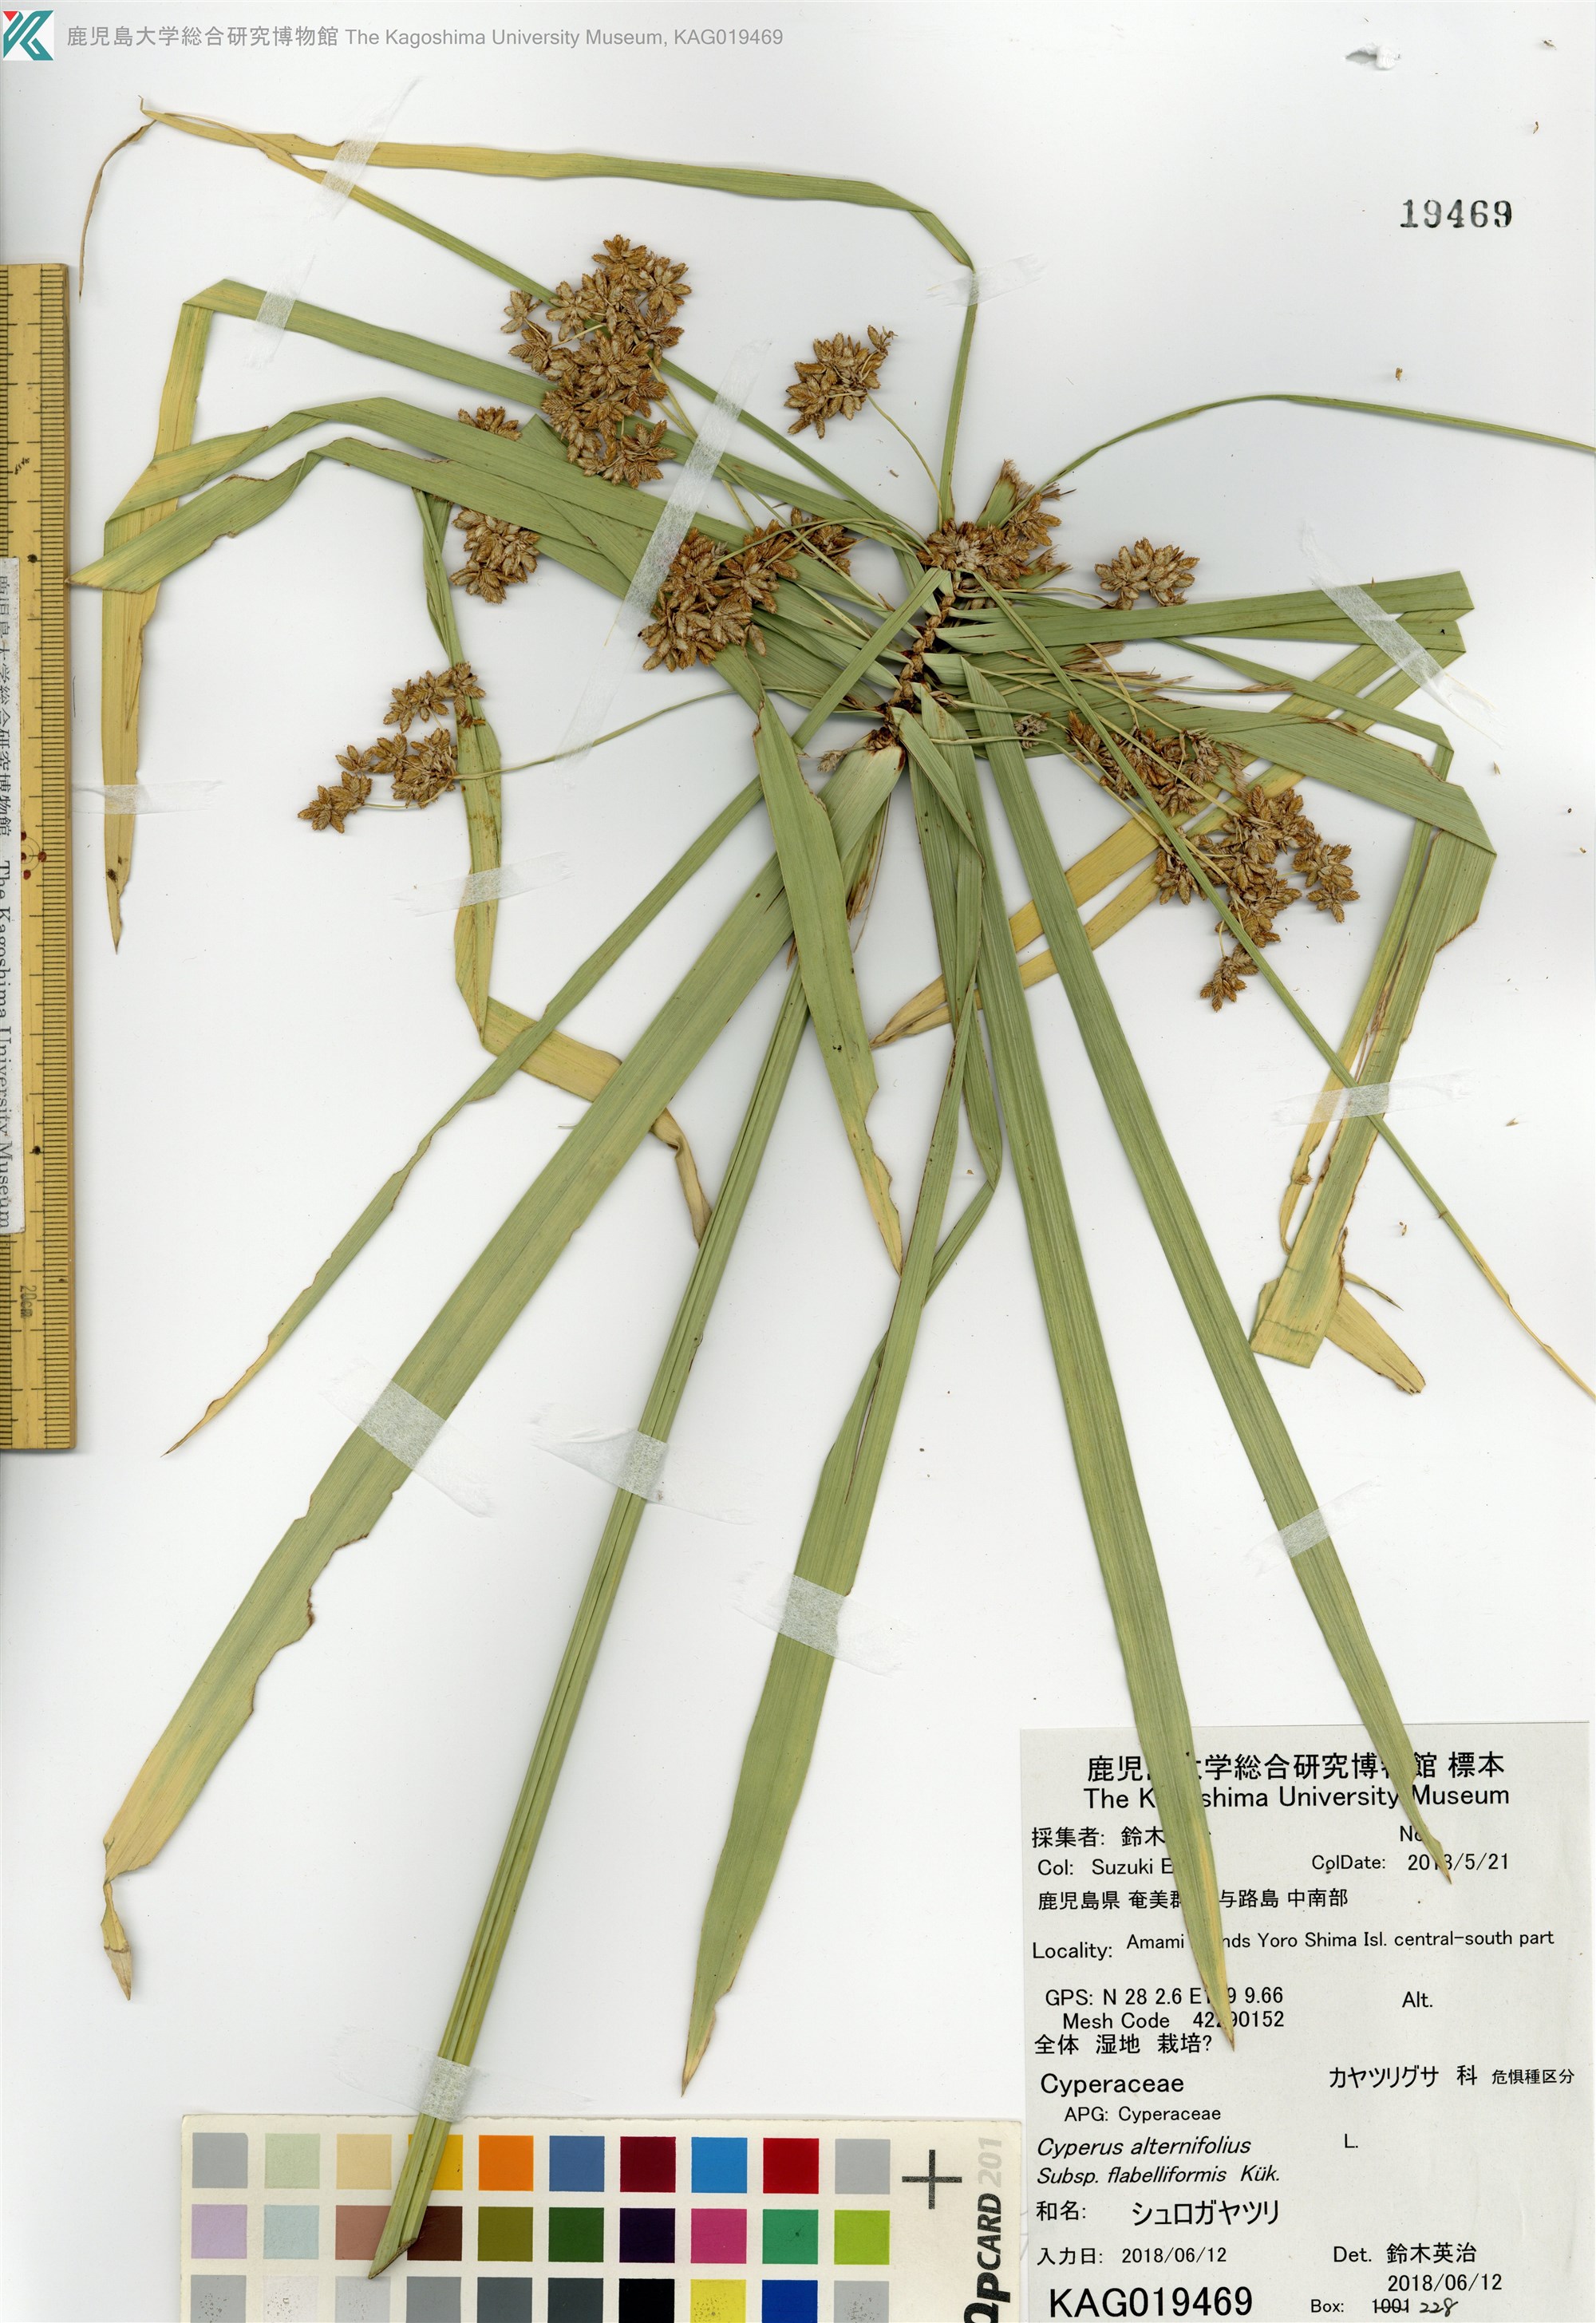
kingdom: Plantae
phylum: Tracheophyta
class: Liliopsida
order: Poales
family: Cyperaceae
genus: Cyperus
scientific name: Cyperus alternifolius
